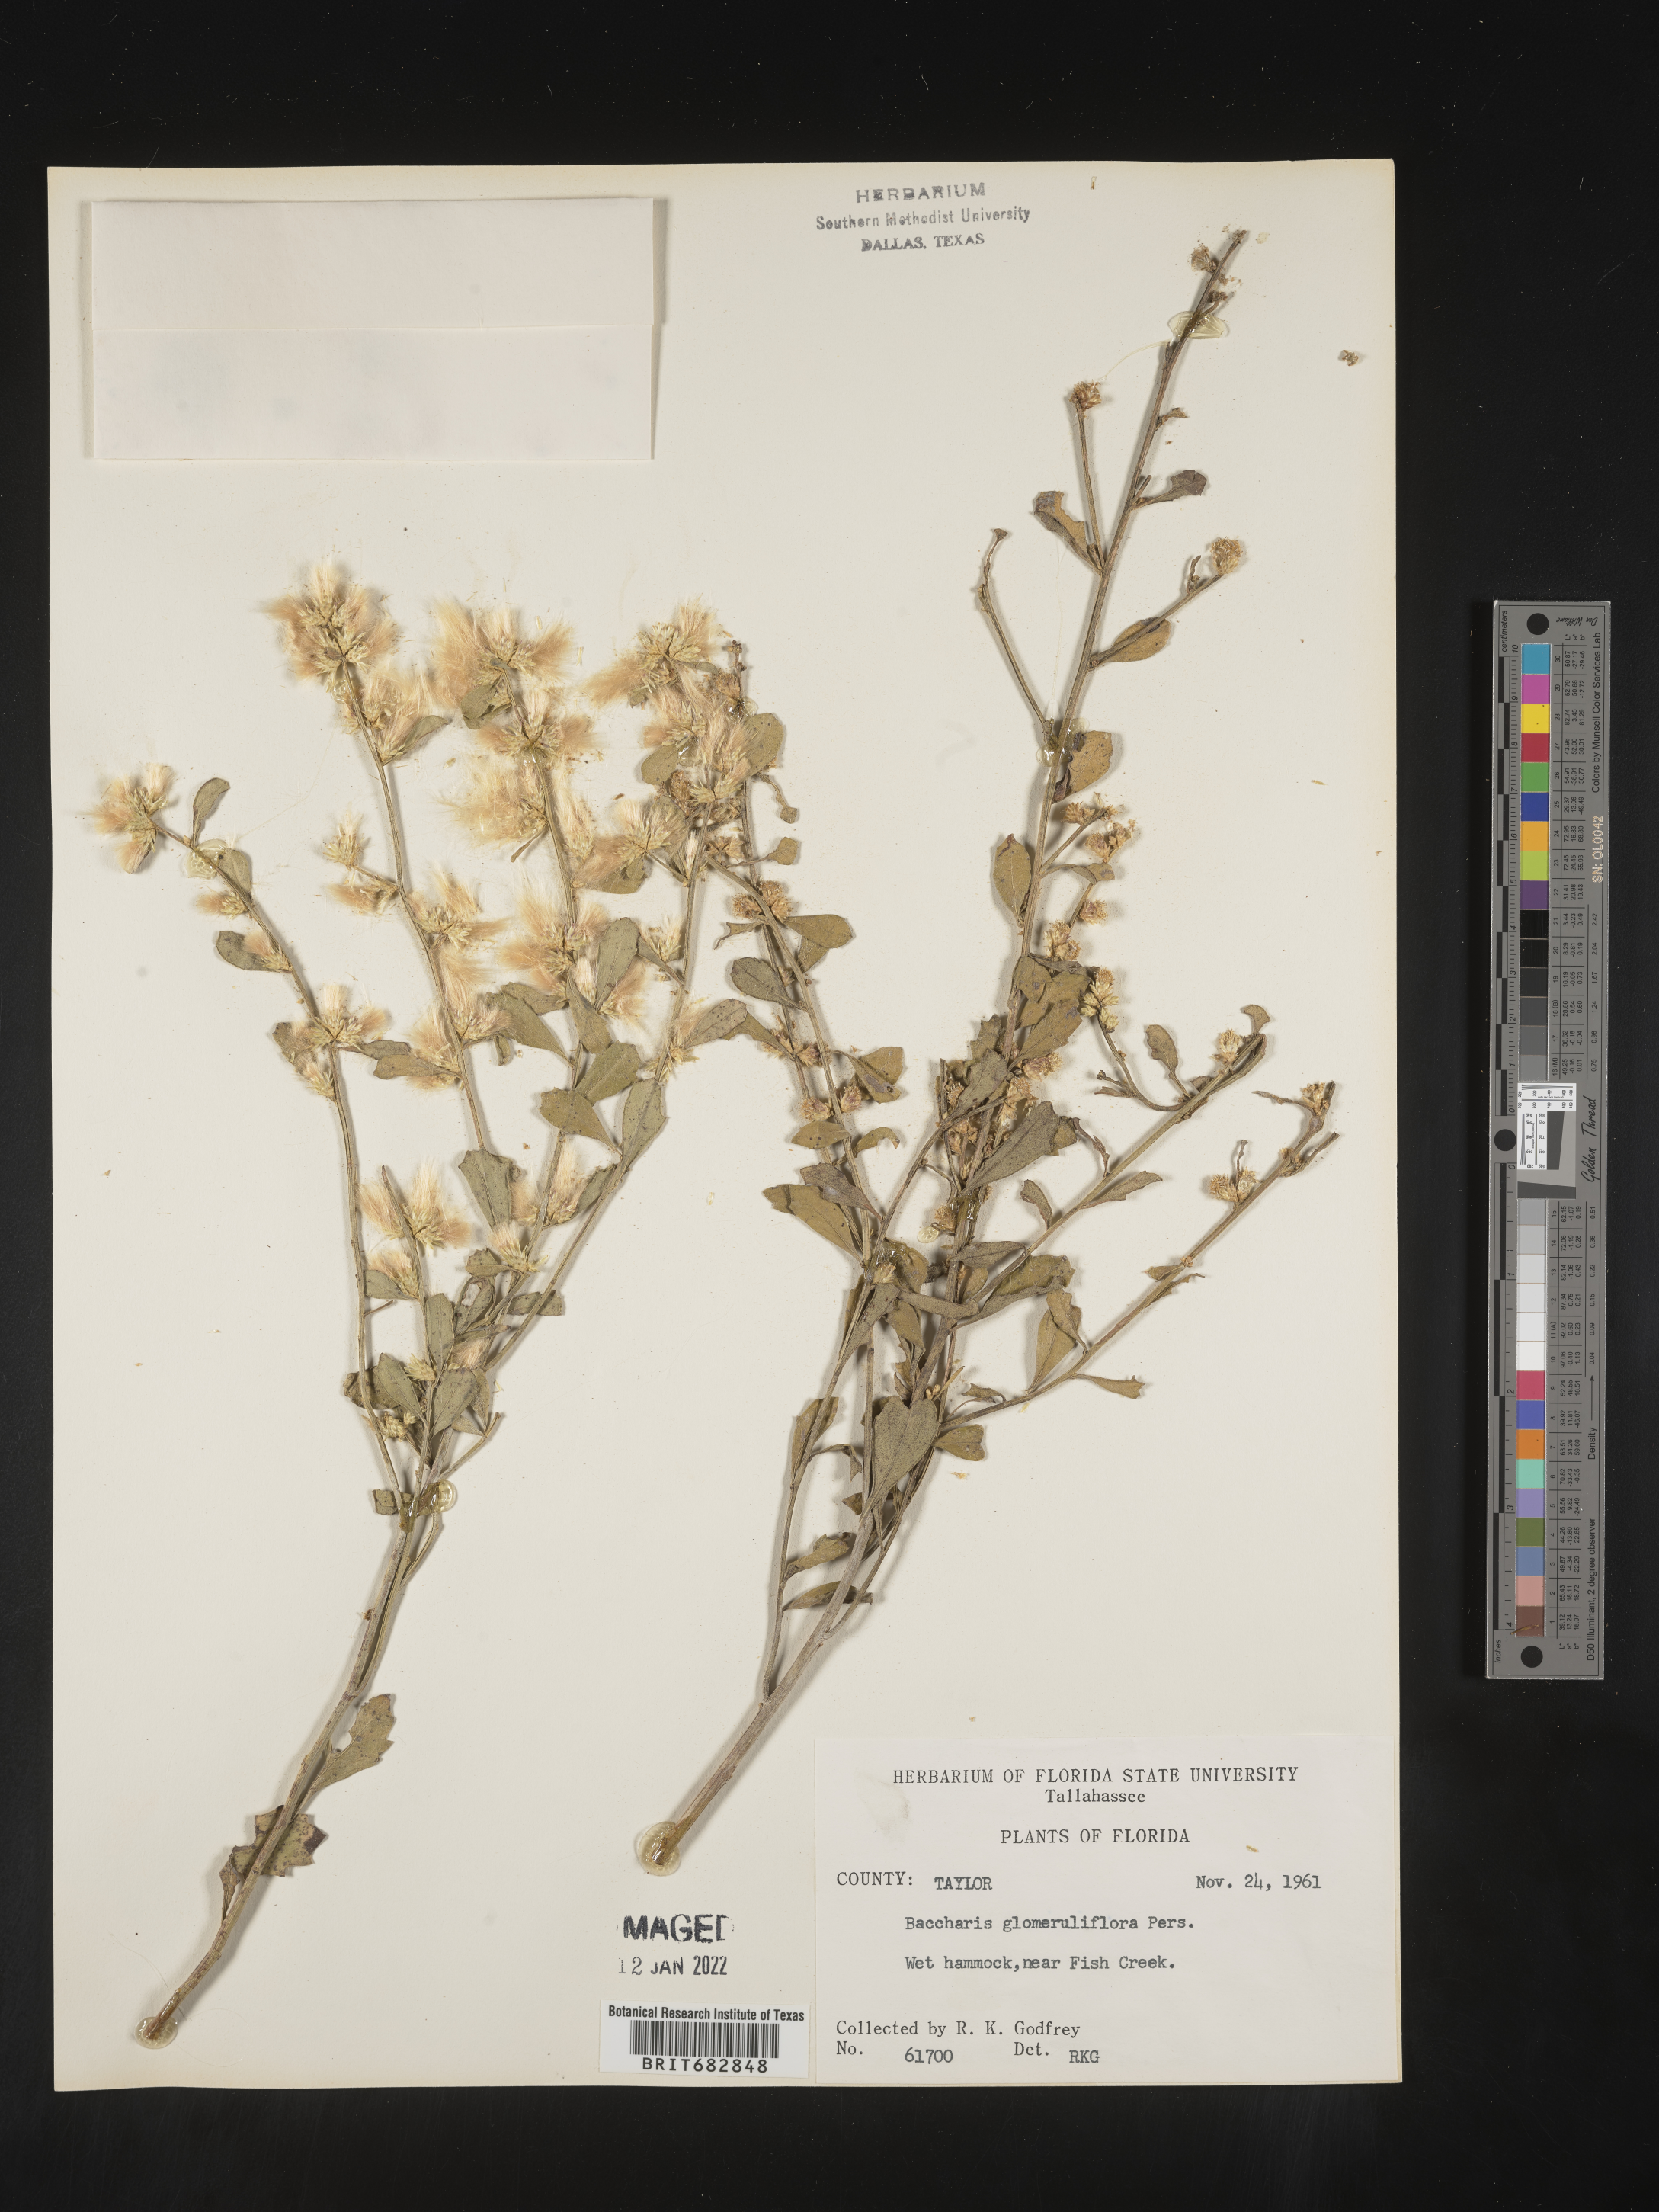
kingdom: Plantae
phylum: Tracheophyta
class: Magnoliopsida
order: Asterales
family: Asteraceae
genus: Baccharis
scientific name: Baccharis glomeruliflora
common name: Silverling groundsel bush
